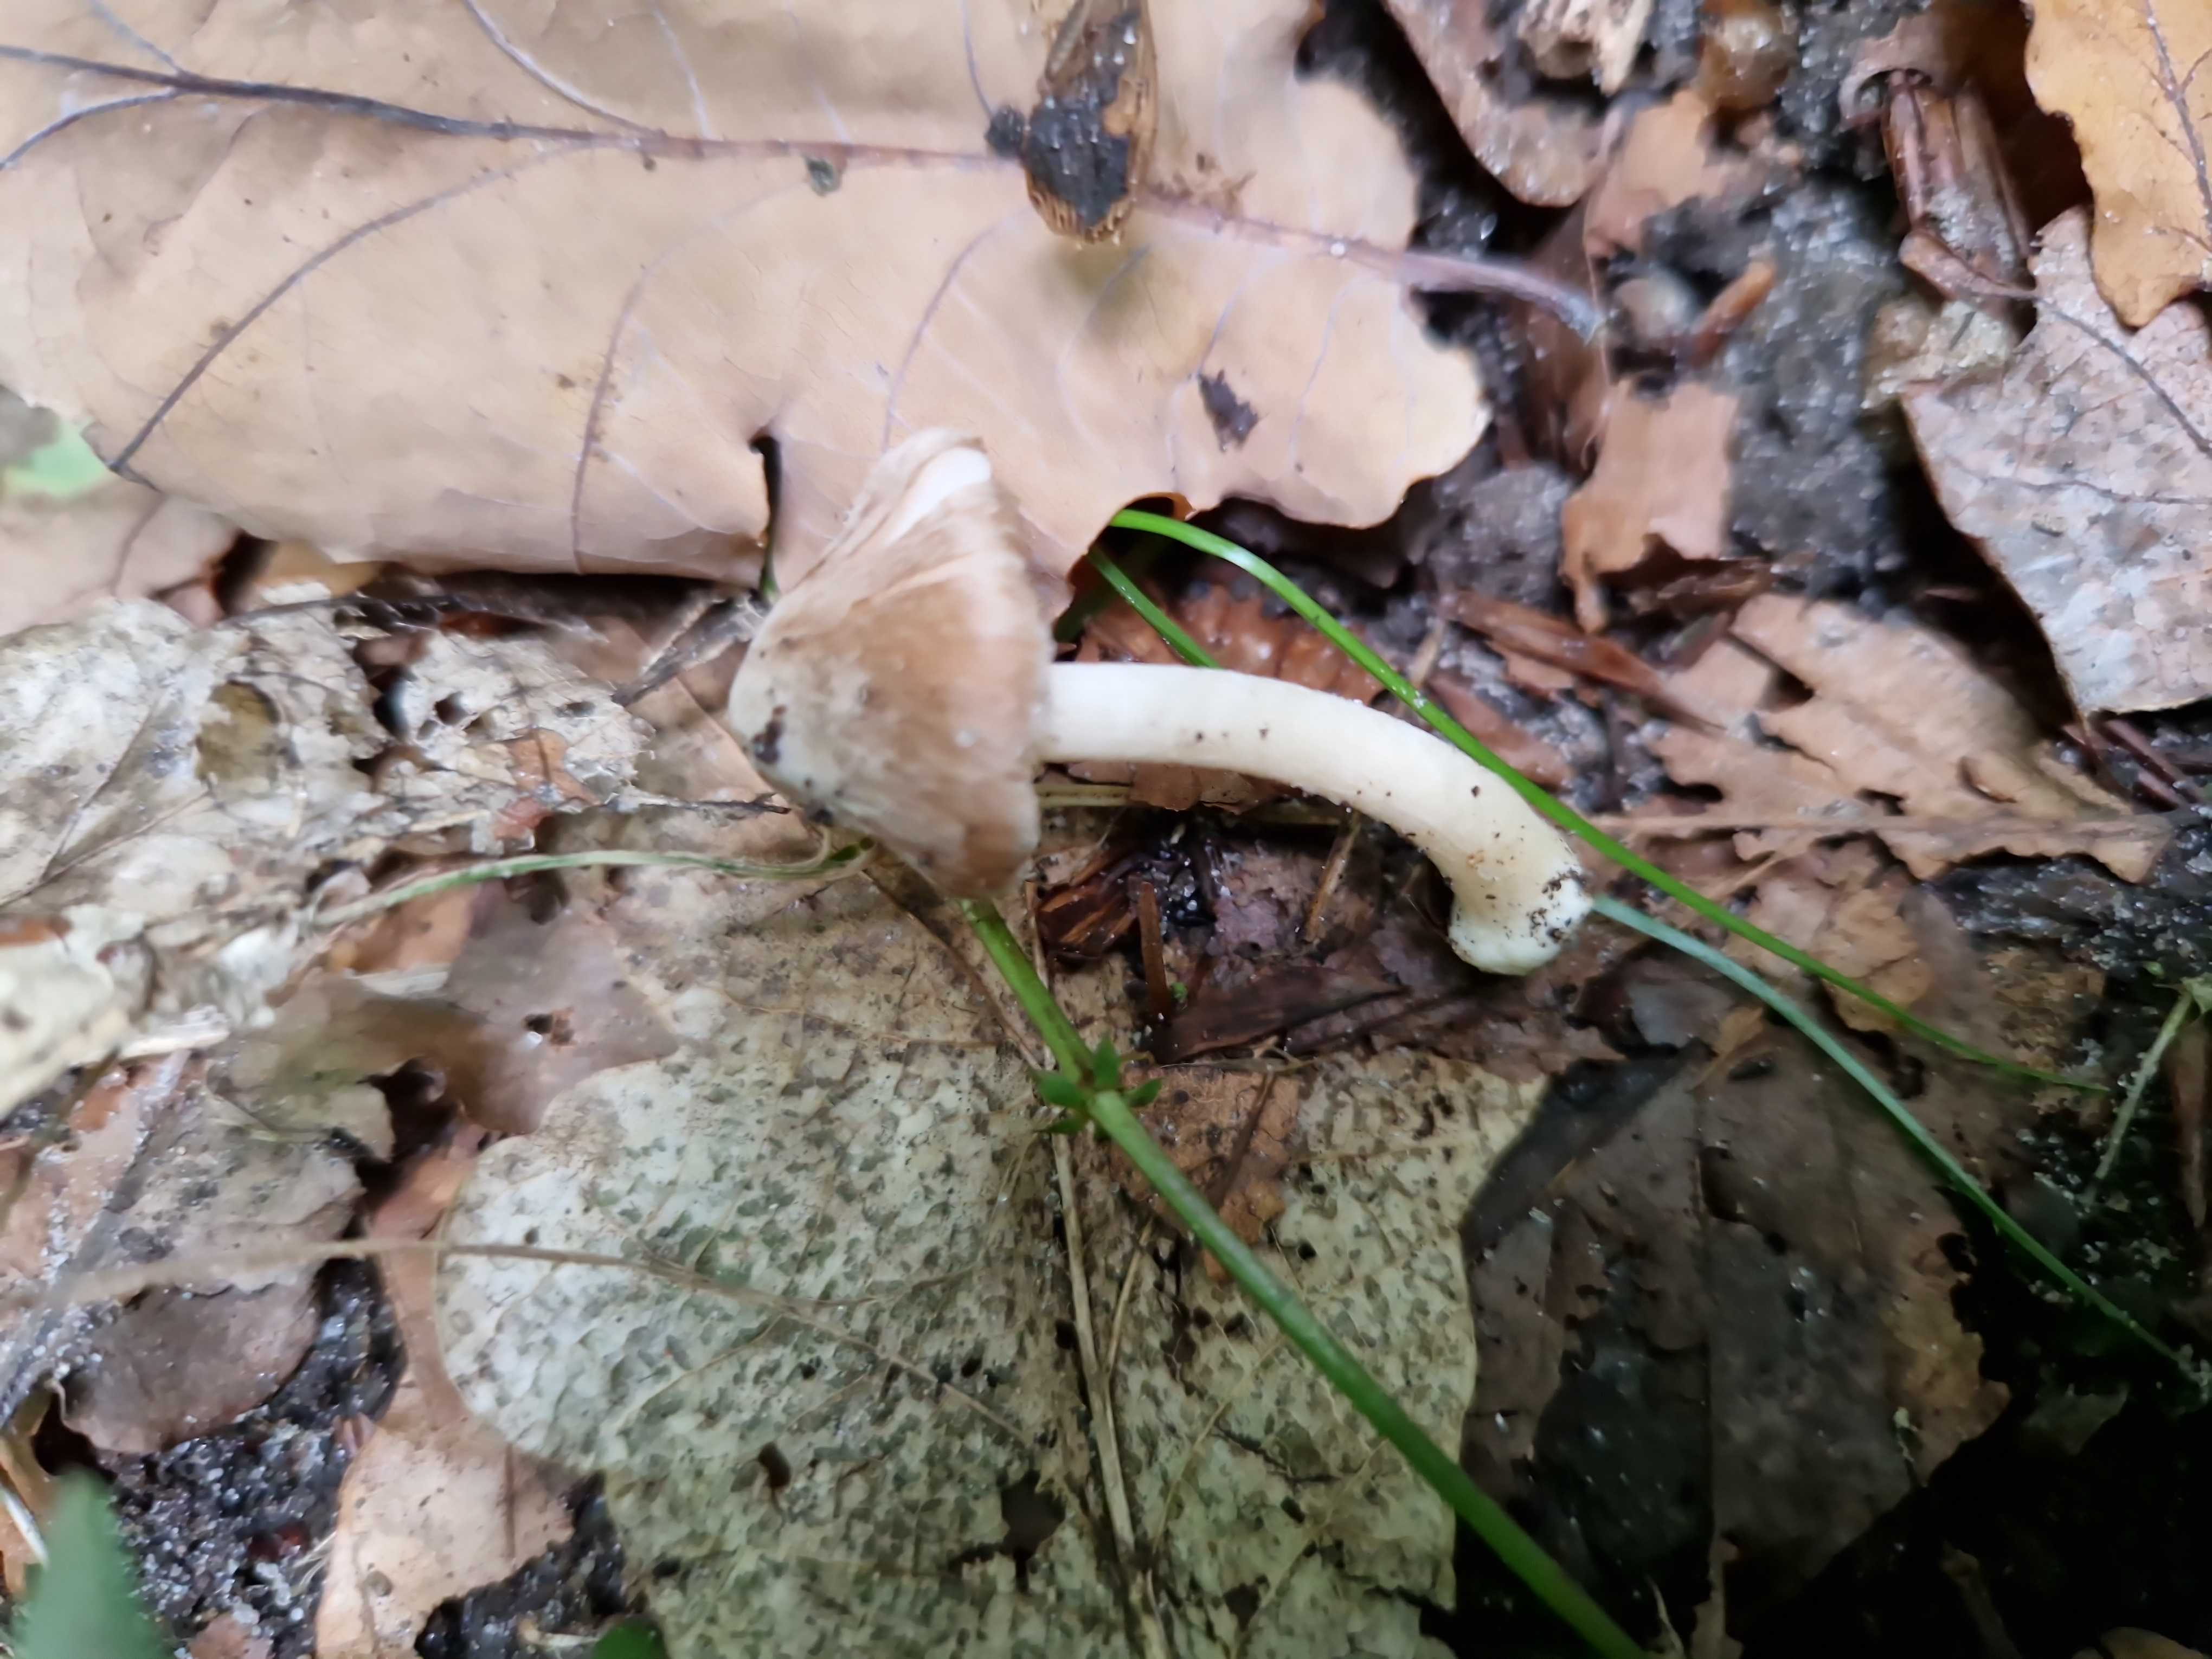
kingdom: Fungi
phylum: Basidiomycota
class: Agaricomycetes
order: Agaricales
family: Inocybaceae
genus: Inocybe
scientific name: Inocybe
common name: trævlhat
